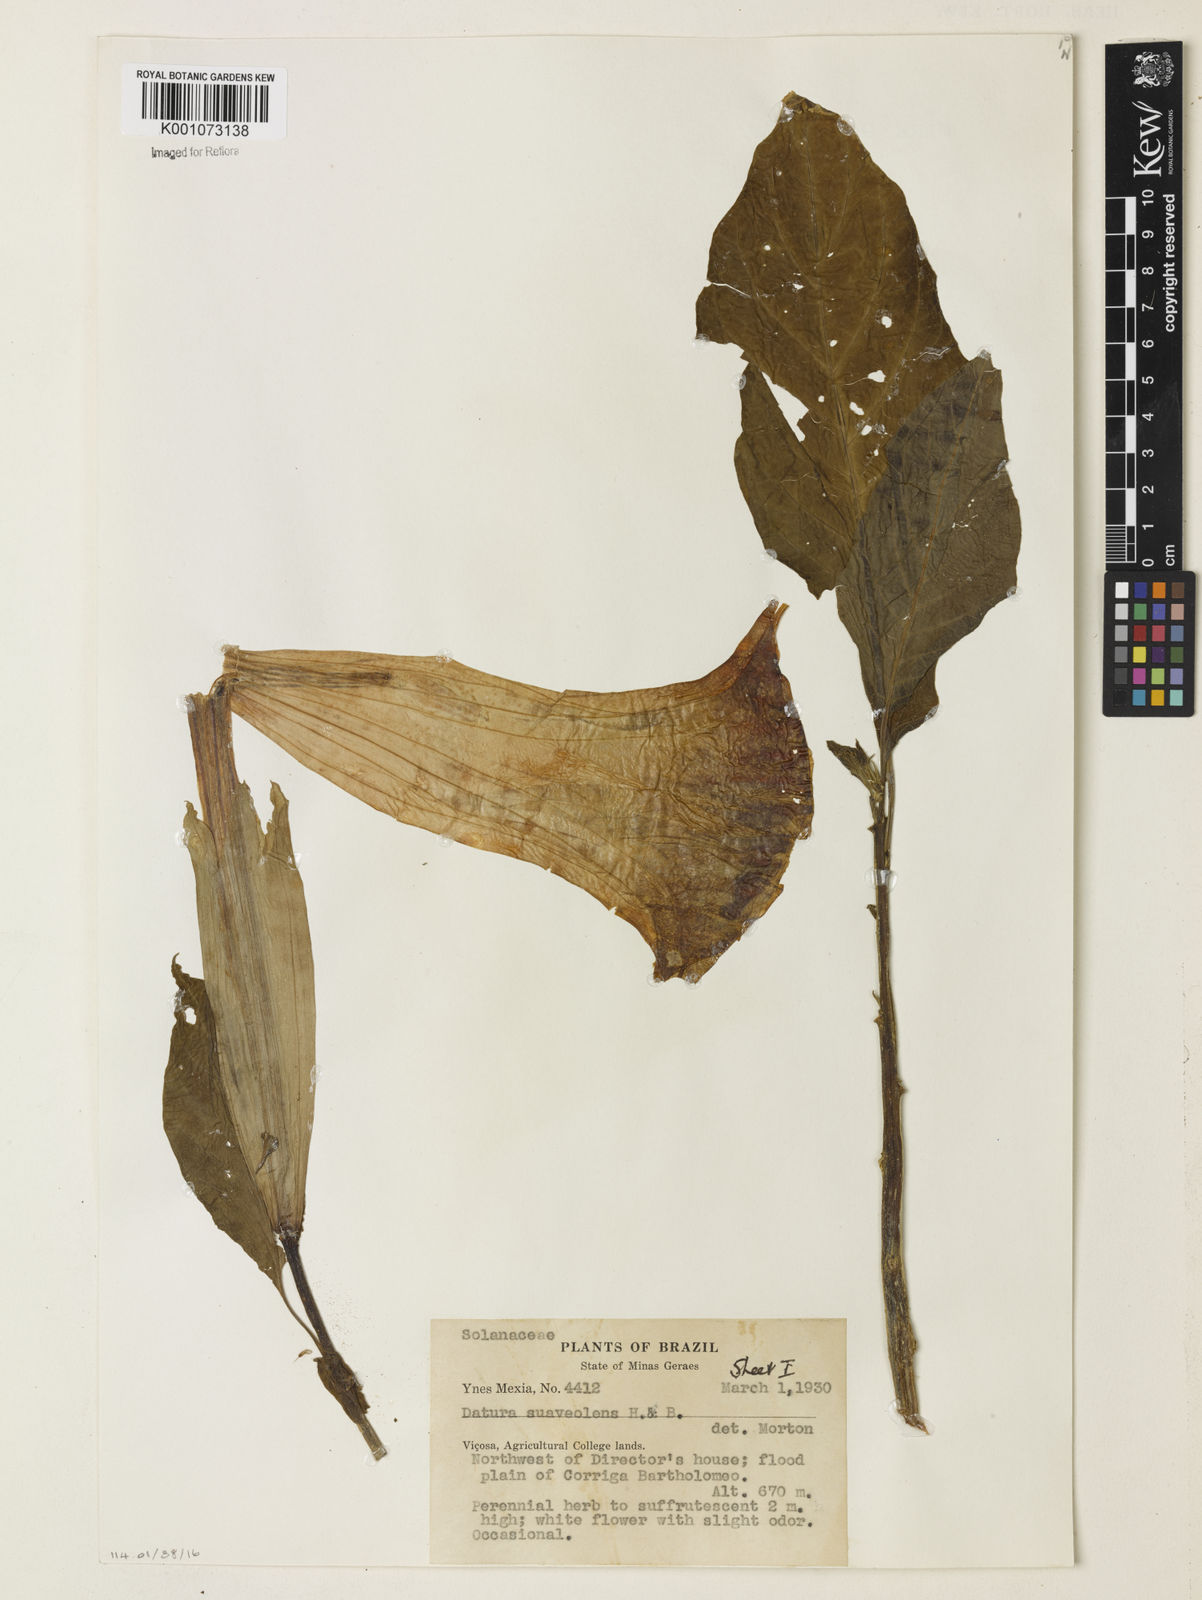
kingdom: Plantae
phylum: Tracheophyta
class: Magnoliopsida
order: Solanales
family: Solanaceae
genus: Brugmansia
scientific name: Brugmansia
